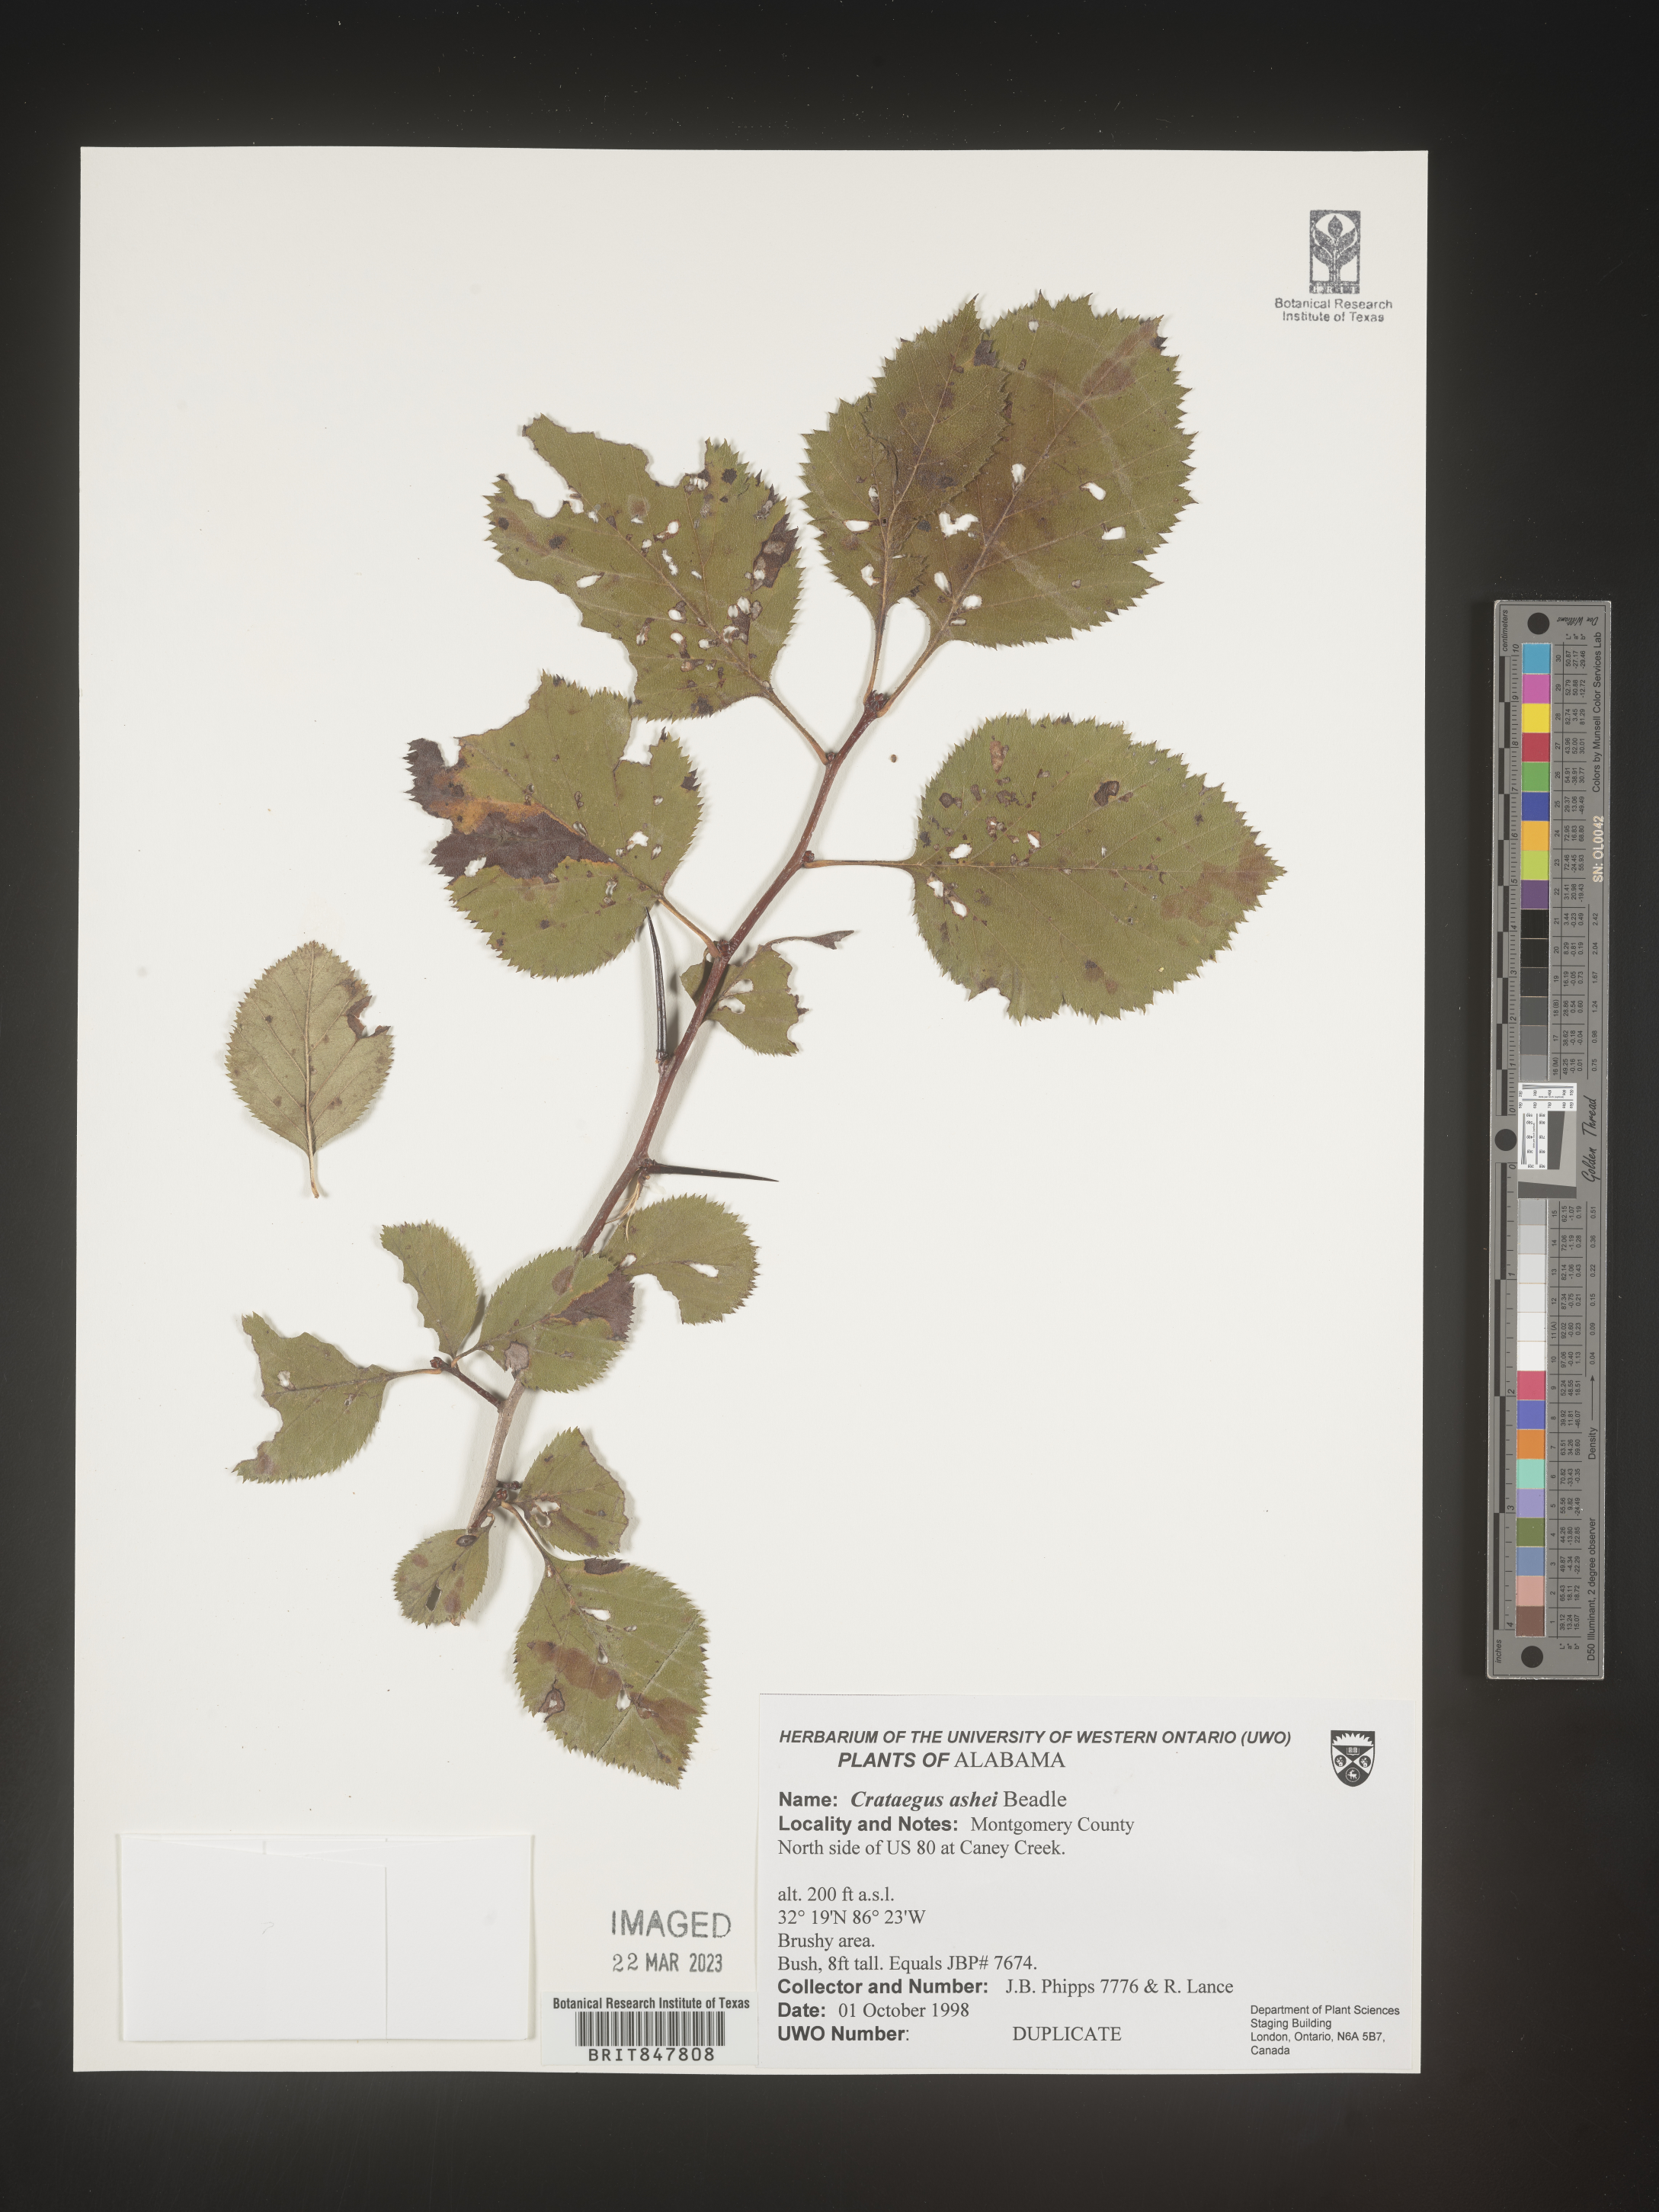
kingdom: Plantae
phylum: Tracheophyta
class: Magnoliopsida
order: Rosales
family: Rosaceae
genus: Crataegus
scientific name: Crataegus
